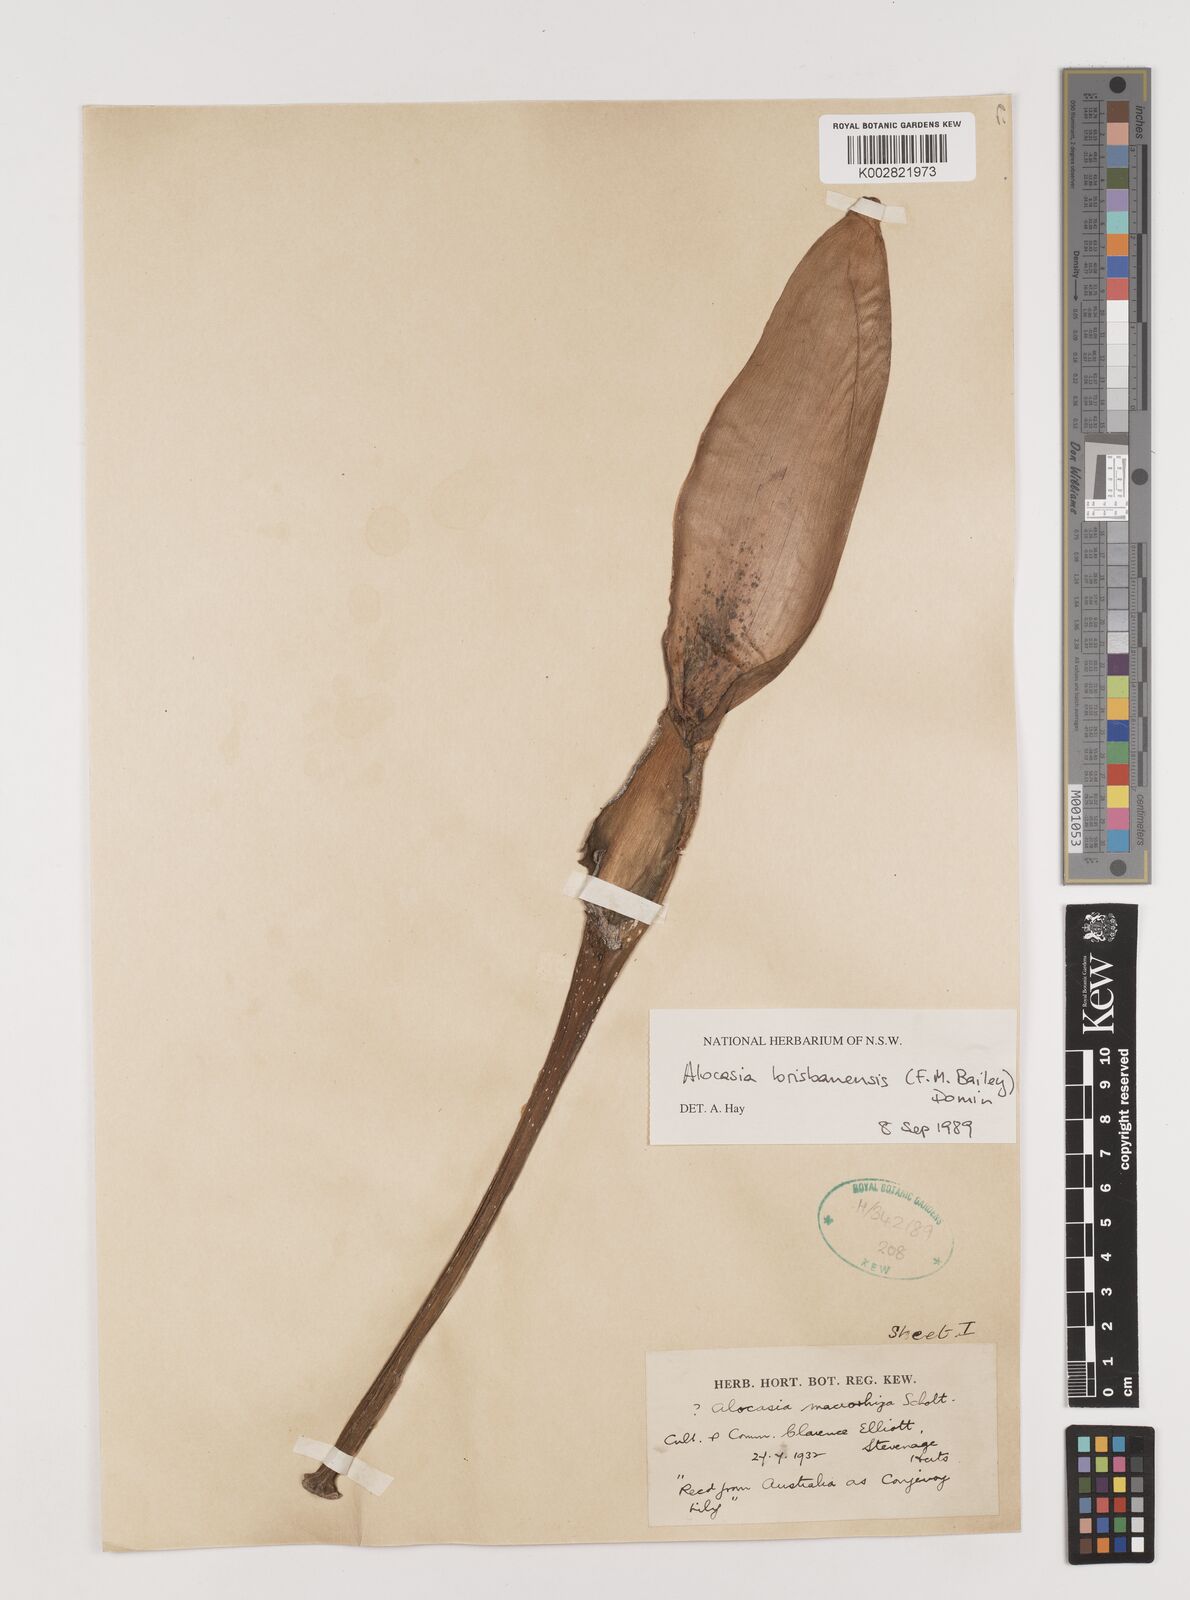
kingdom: Plantae
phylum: Tracheophyta
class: Liliopsida
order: Alismatales
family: Araceae
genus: Alocasia
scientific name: Alocasia brisbanensis
